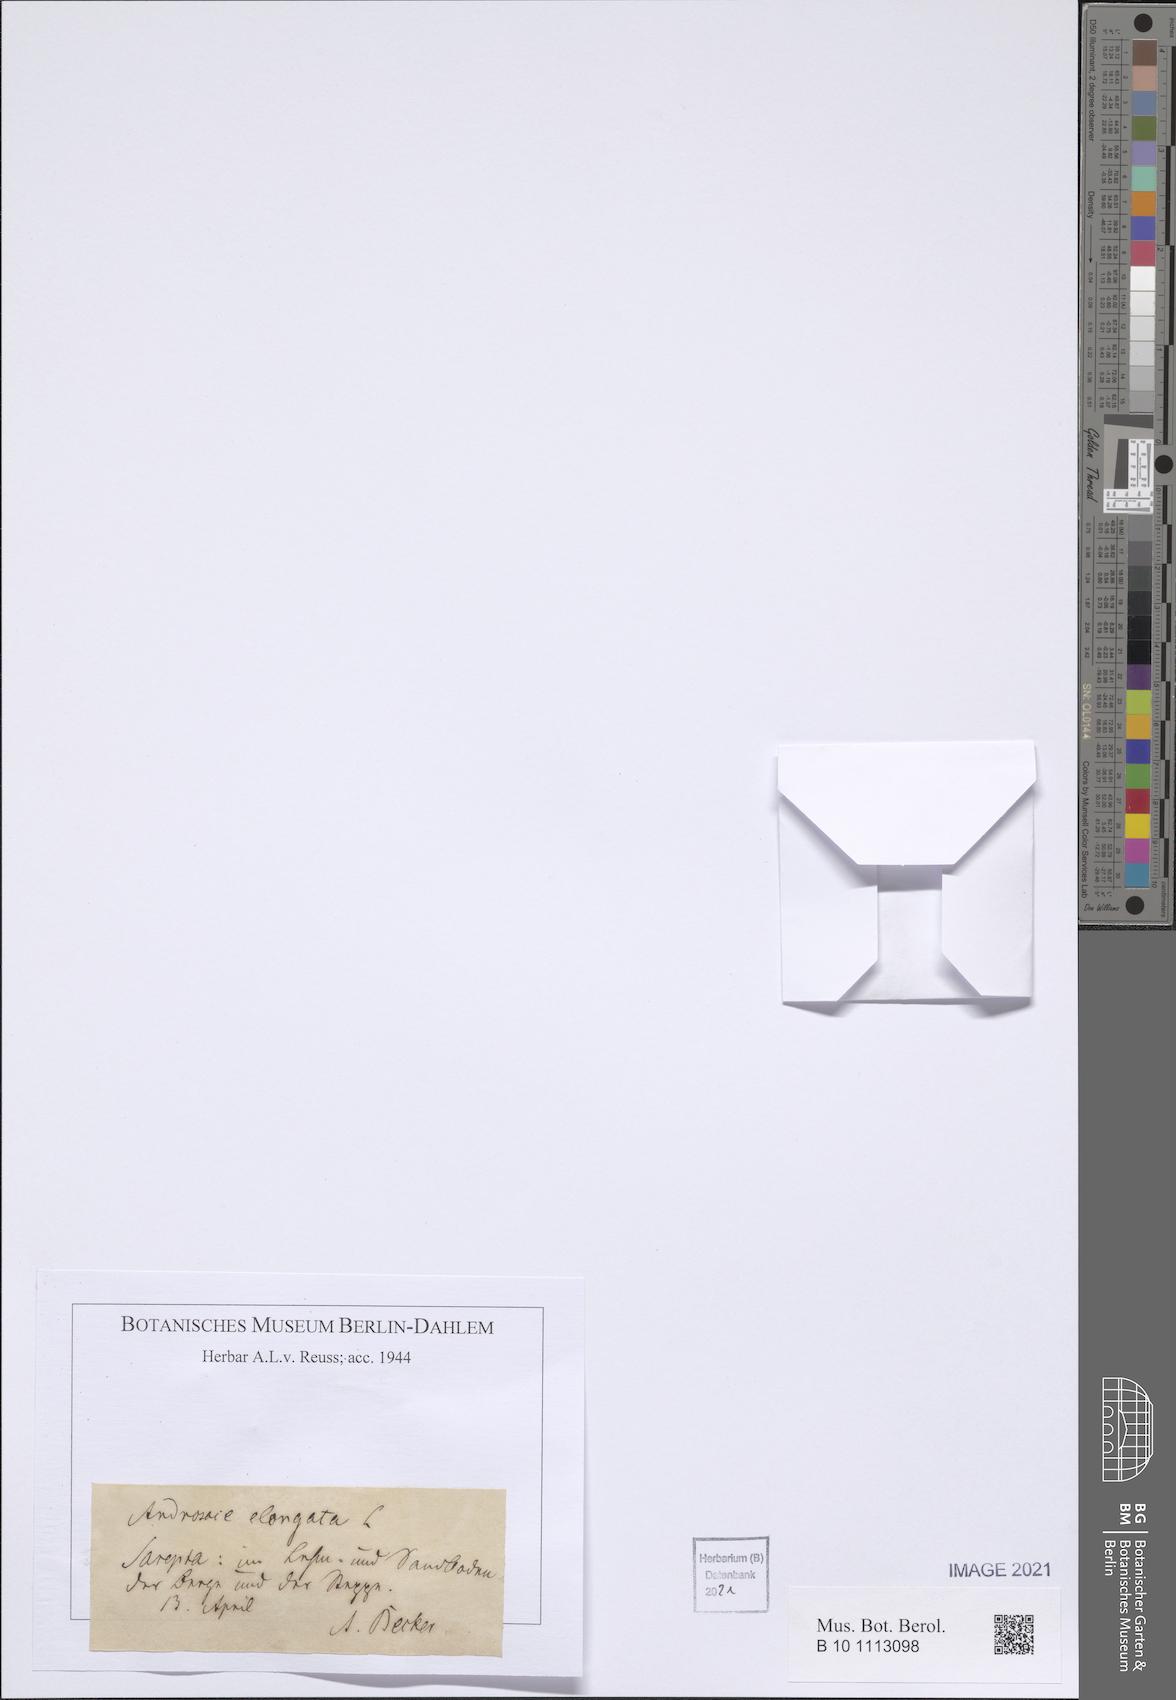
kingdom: Plantae
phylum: Tracheophyta
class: Magnoliopsida
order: Ericales
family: Primulaceae
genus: Androsace
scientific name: Androsace elongata
